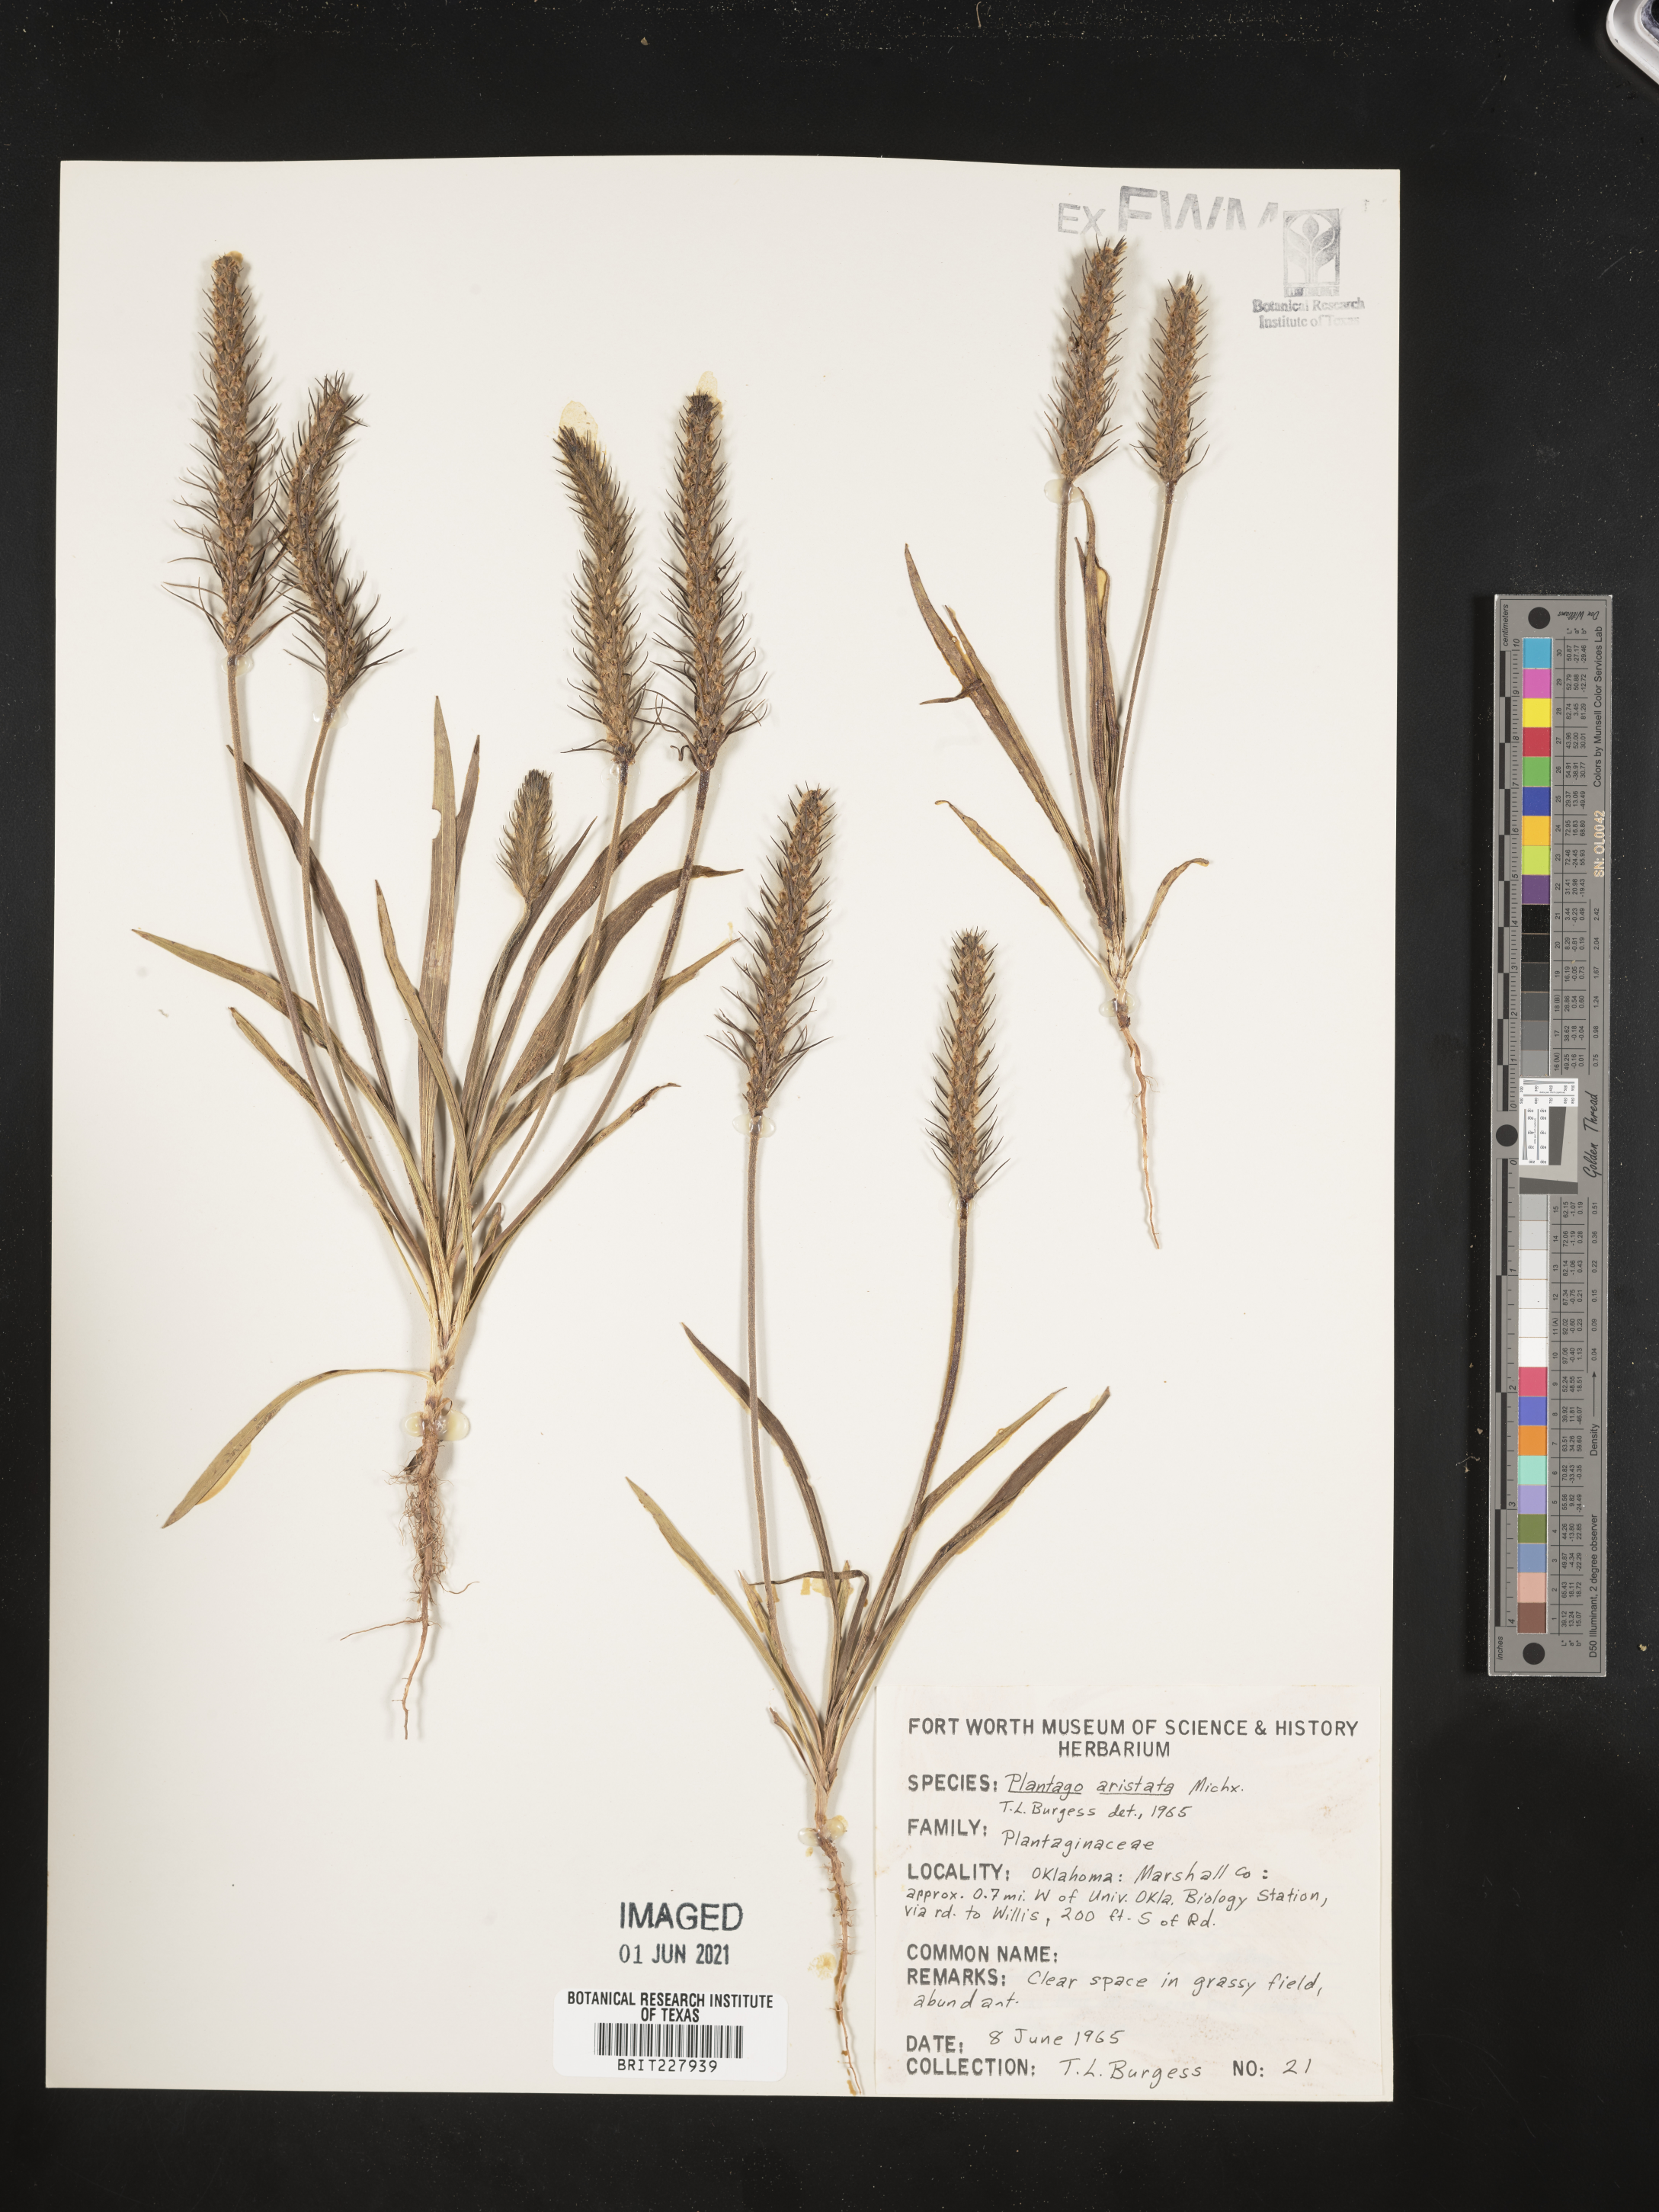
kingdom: Plantae
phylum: Tracheophyta
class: Magnoliopsida
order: Lamiales
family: Plantaginaceae
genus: Plantago
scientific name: Plantago aristata
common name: Bracted plantain
